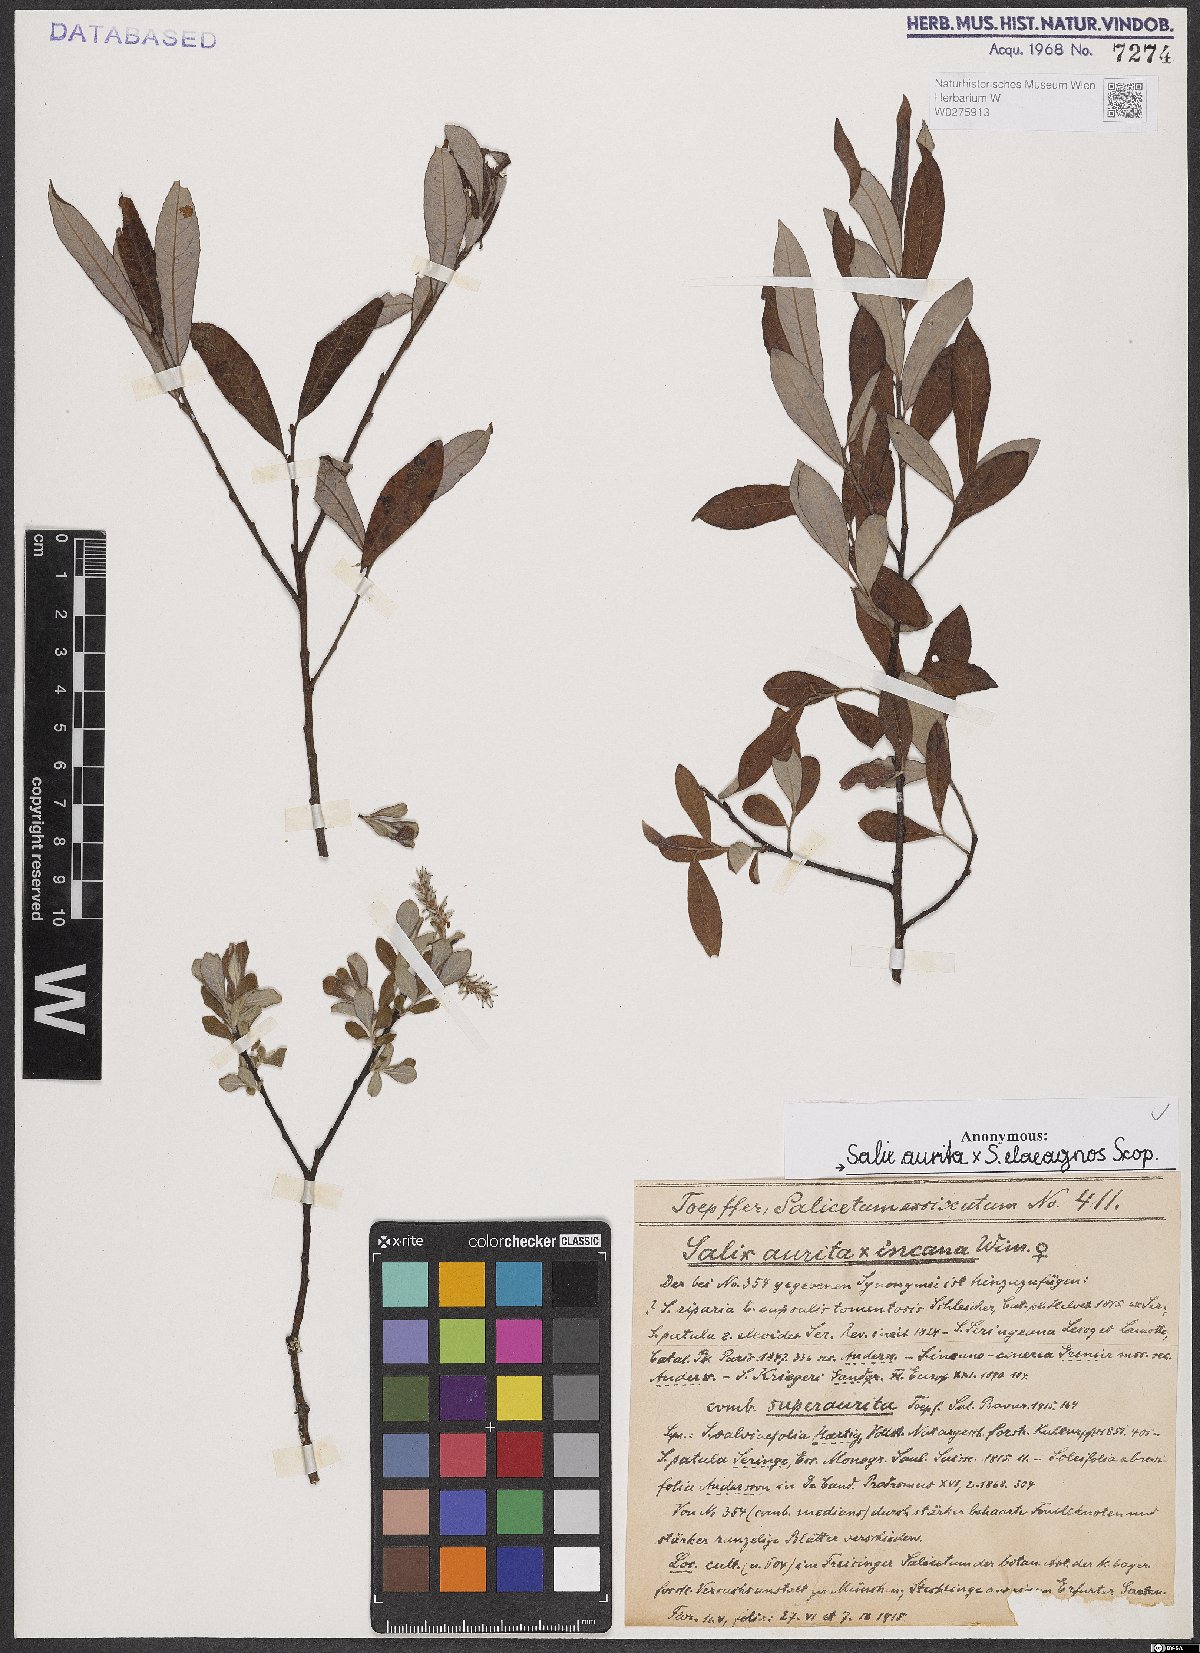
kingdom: Plantae
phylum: Tracheophyta
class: Magnoliopsida
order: Malpighiales
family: Salicaceae
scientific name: Salicaceae
